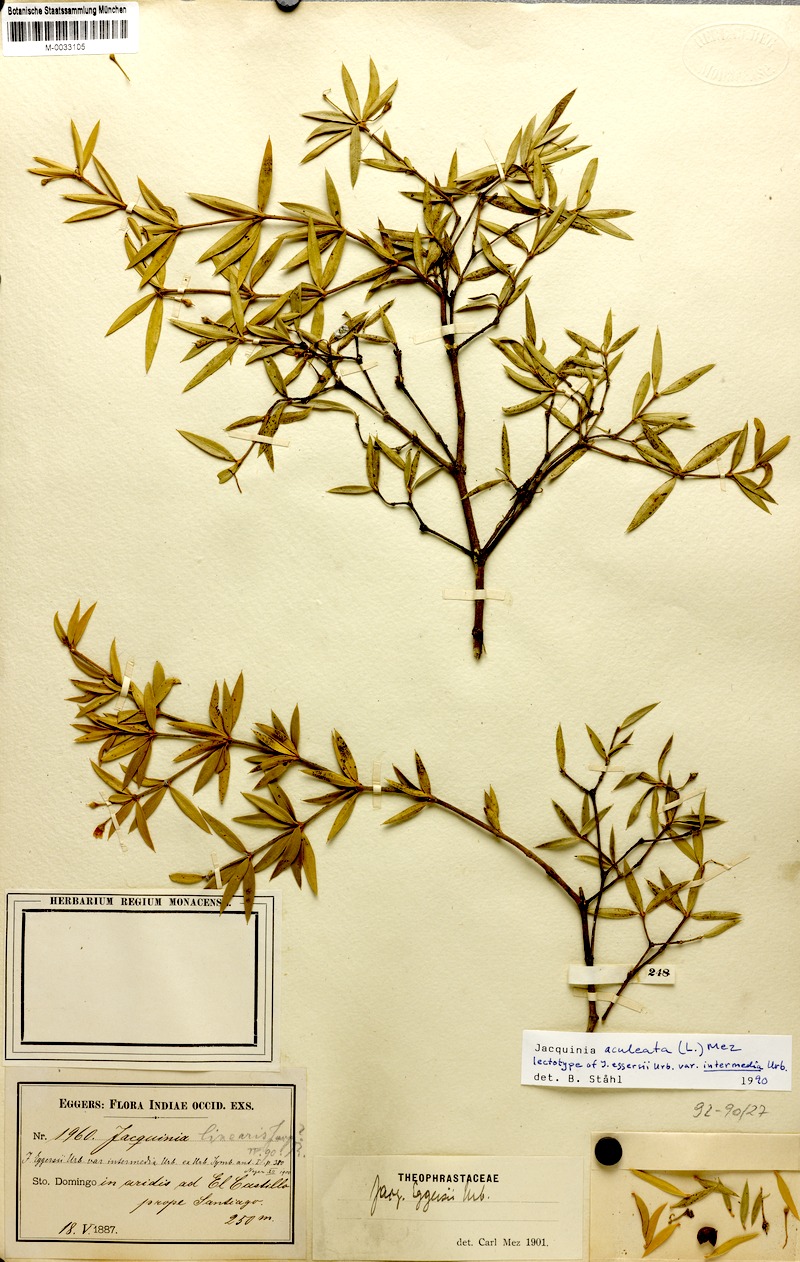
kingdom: Plantae
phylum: Tracheophyta
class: Magnoliopsida
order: Ericales
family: Primulaceae
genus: Jacquinia
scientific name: Jacquinia aculeata
